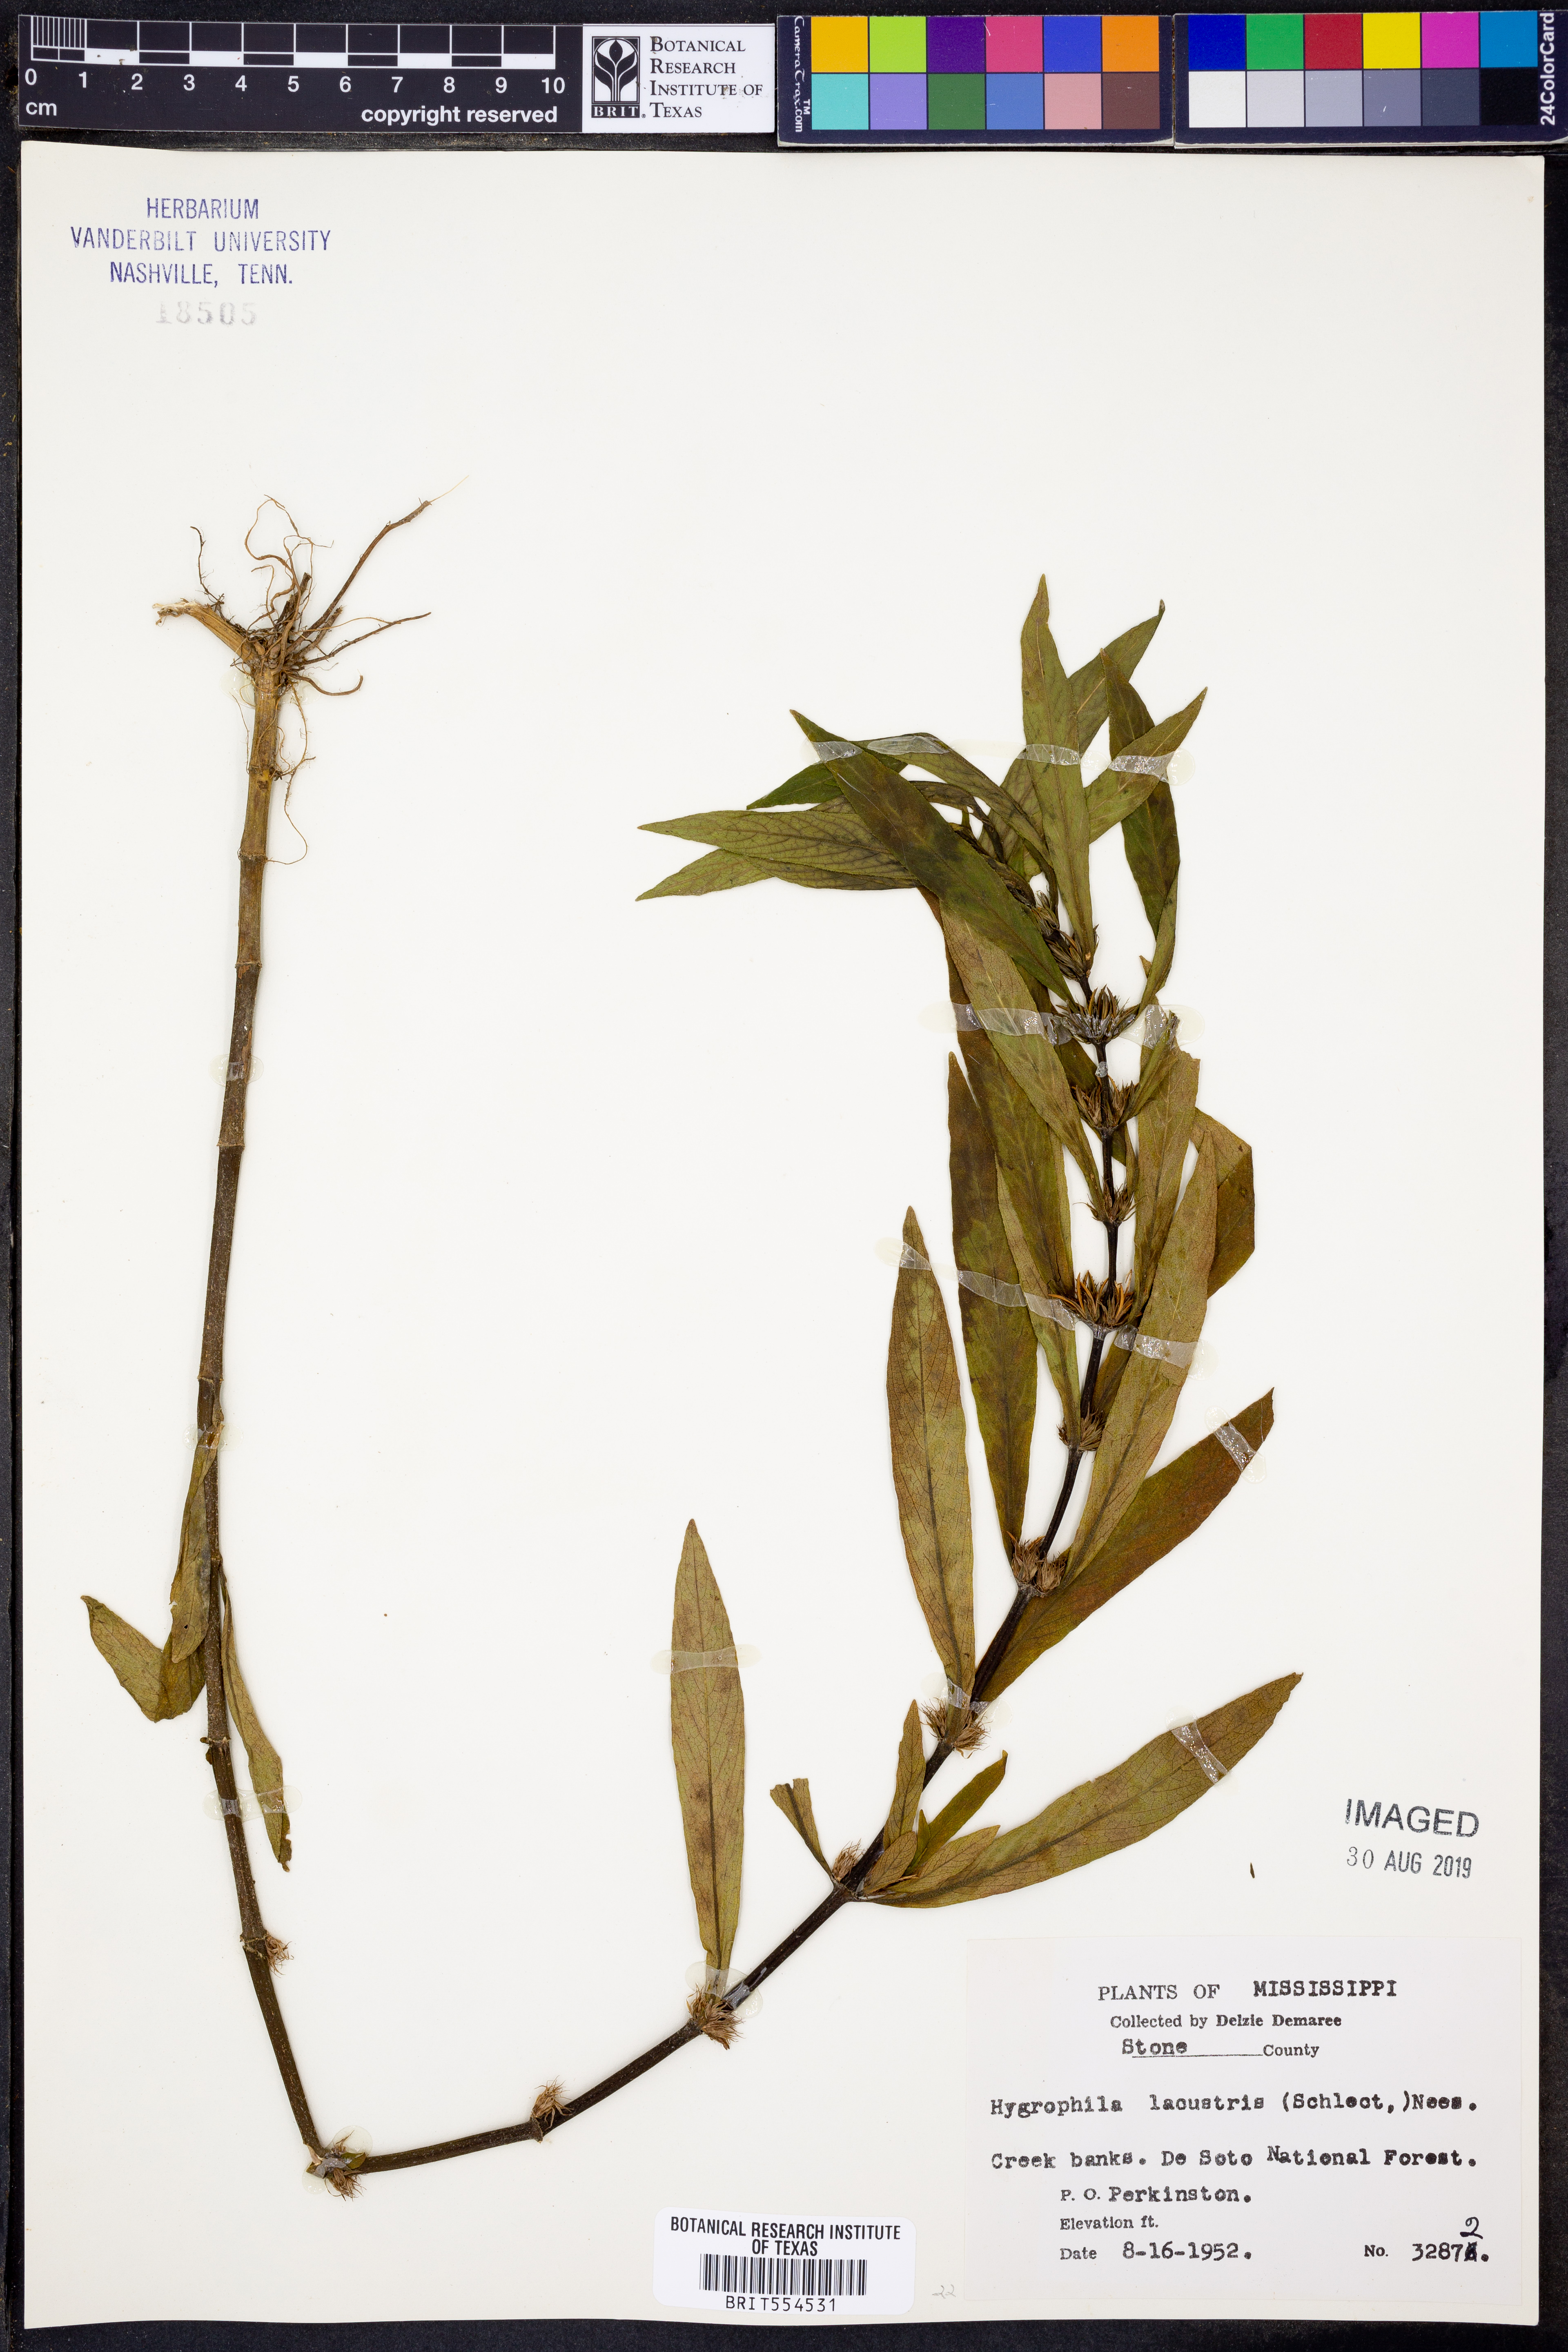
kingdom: Plantae
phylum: Tracheophyta
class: Magnoliopsida
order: Lamiales
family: Acanthaceae
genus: Hygrophila
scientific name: Hygrophila costata
